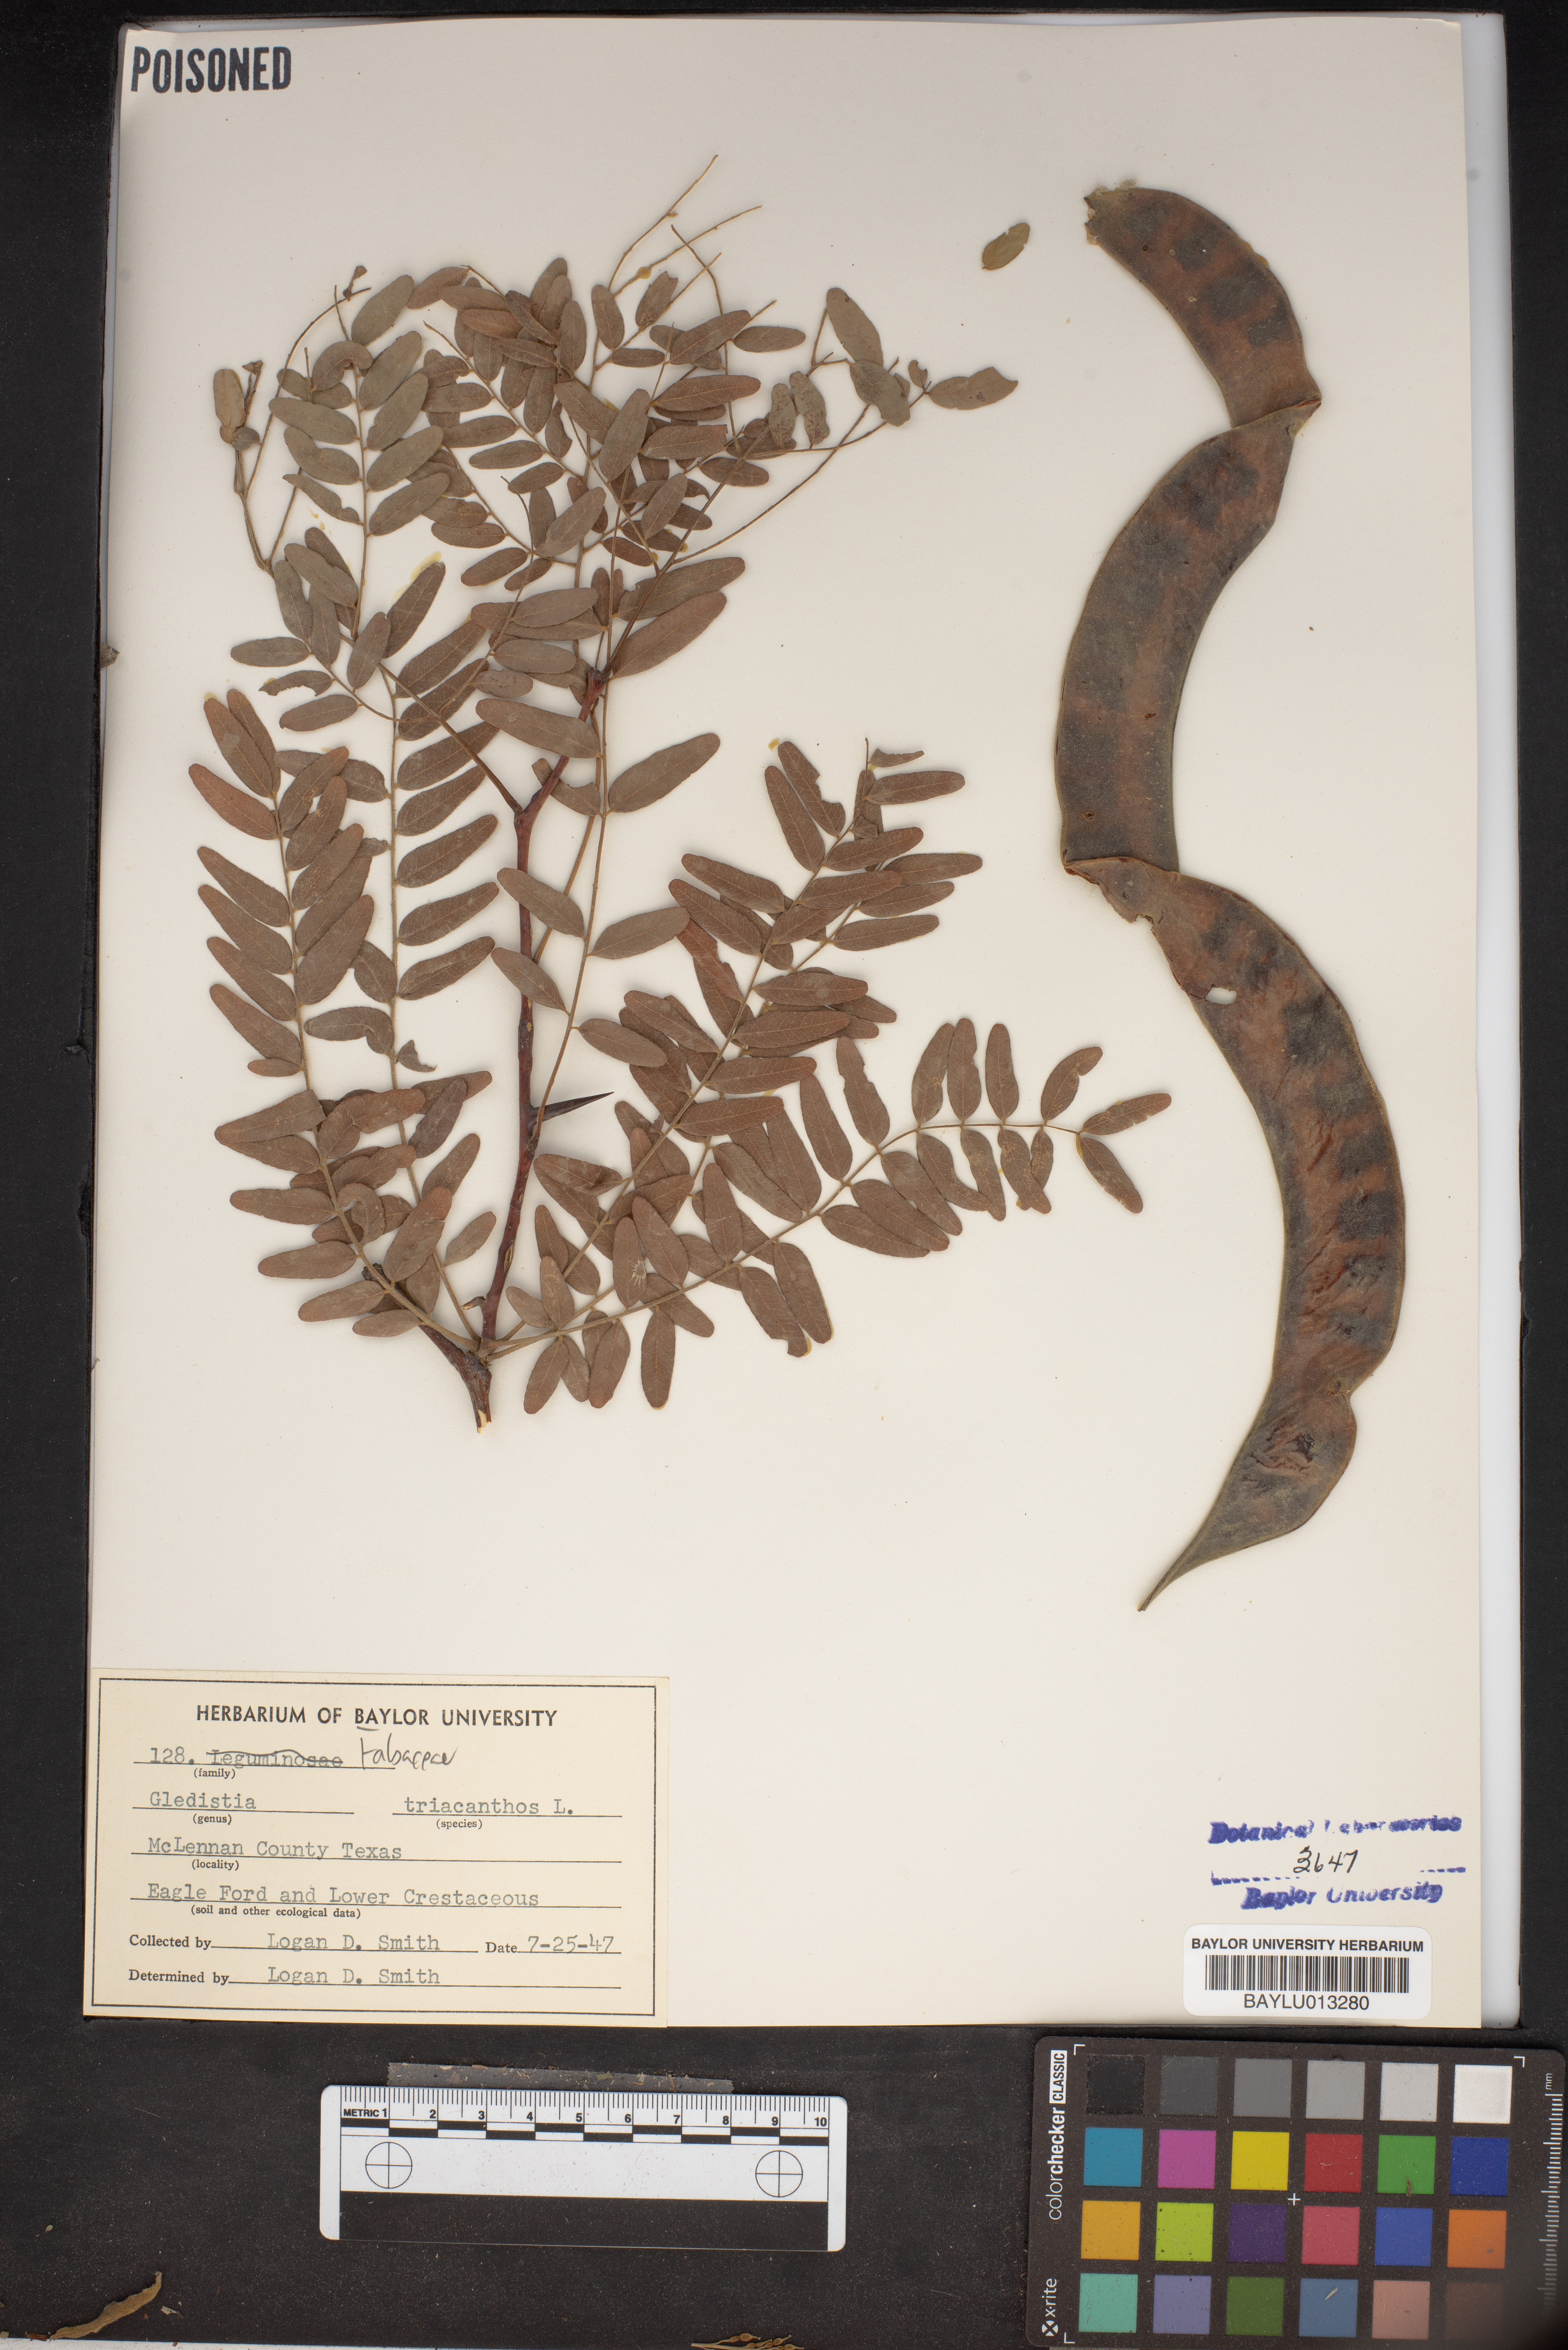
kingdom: Plantae
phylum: Tracheophyta
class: Magnoliopsida
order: Fabales
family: Fabaceae
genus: Gleditsia
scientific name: Gleditsia triacanthos
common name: Common honeylocust
